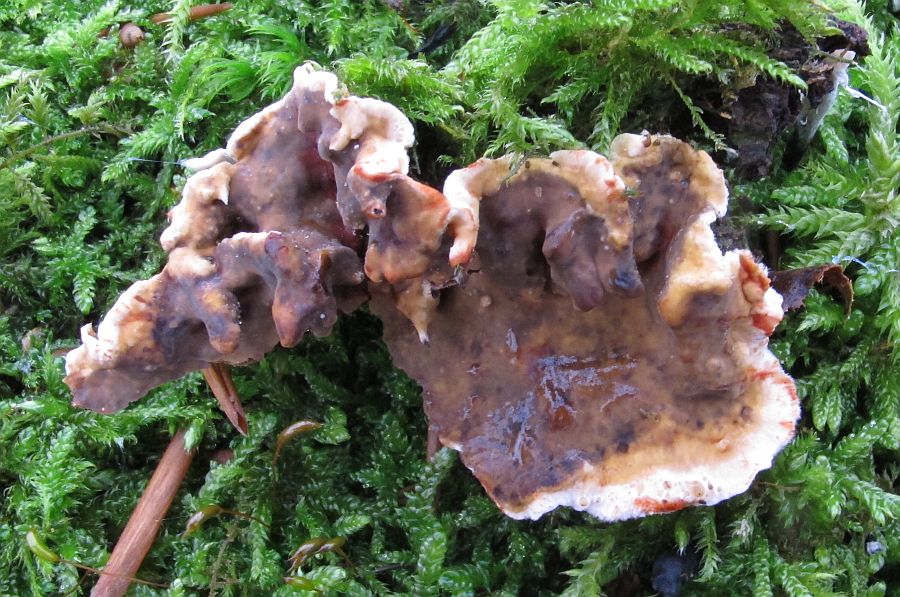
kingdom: Fungi
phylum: Basidiomycota
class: Agaricomycetes
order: Russulales
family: Stereaceae
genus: Stereum
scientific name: Stereum rugosum
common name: rynket lædersvamp
